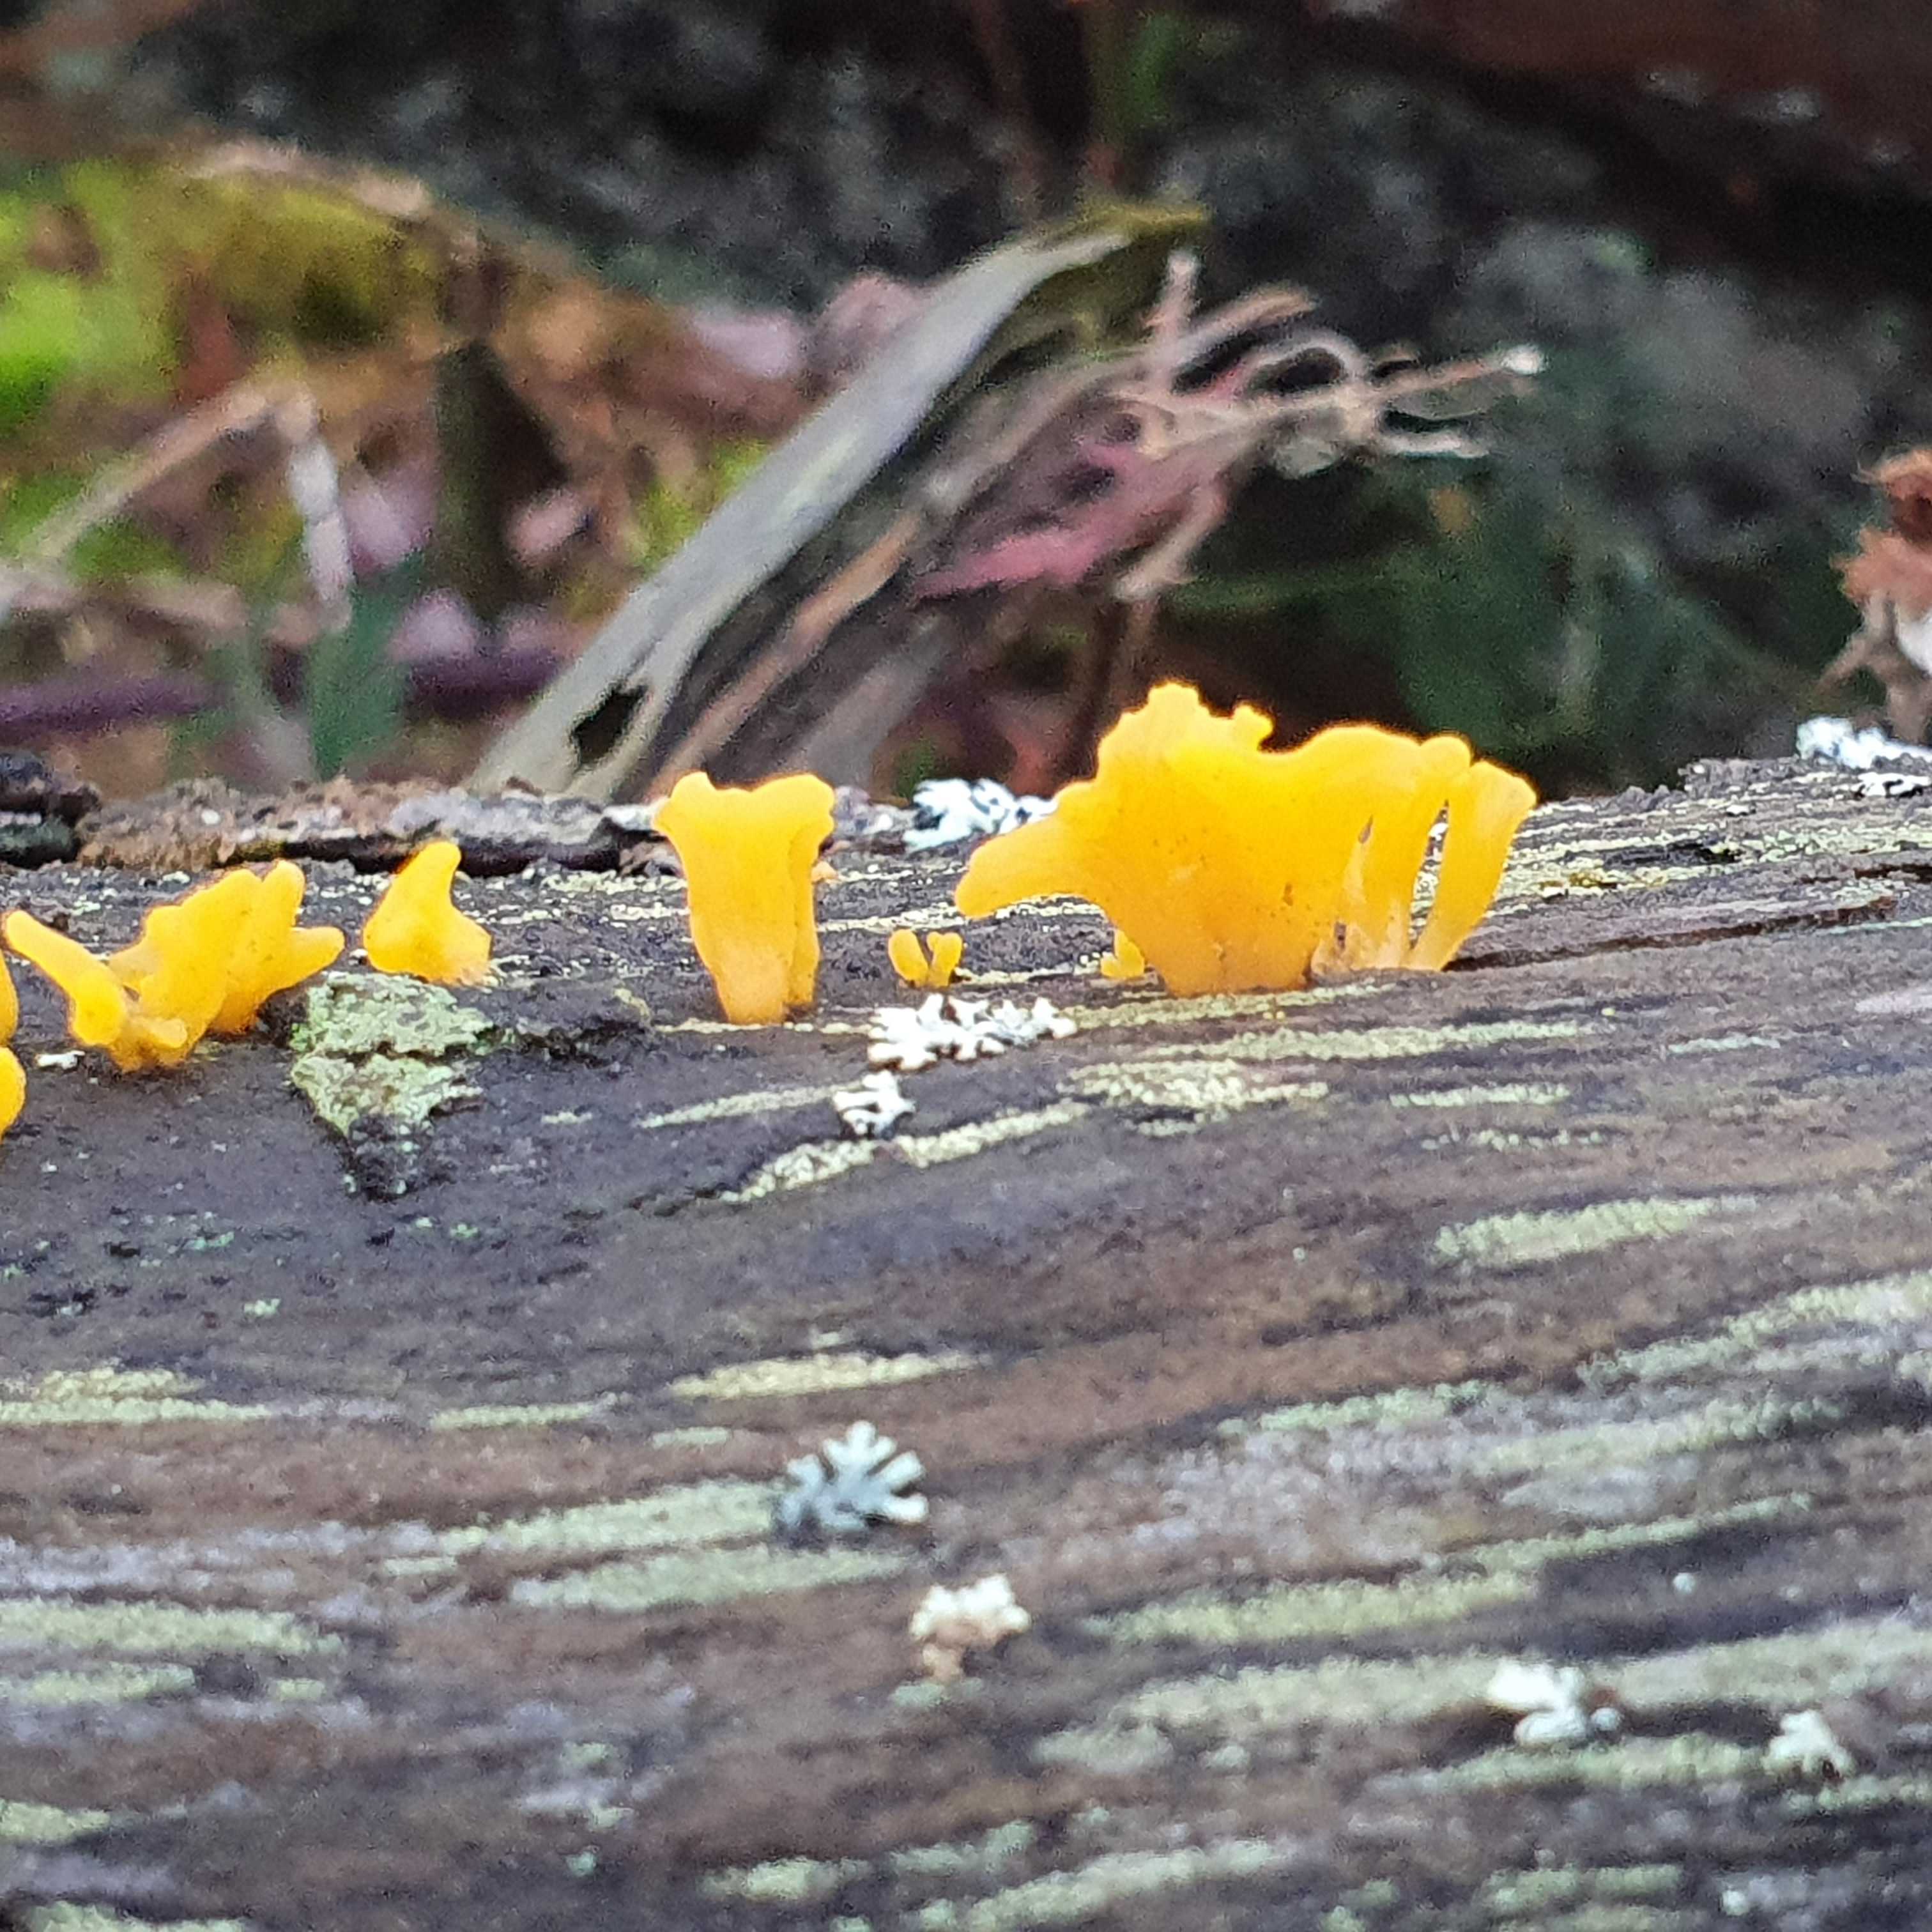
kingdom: Fungi
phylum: Basidiomycota
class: Dacrymycetes
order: Dacrymycetales
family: Dacrymycetaceae
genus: Calocera
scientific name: Calocera furcata
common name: fyrre-guldgaffel
